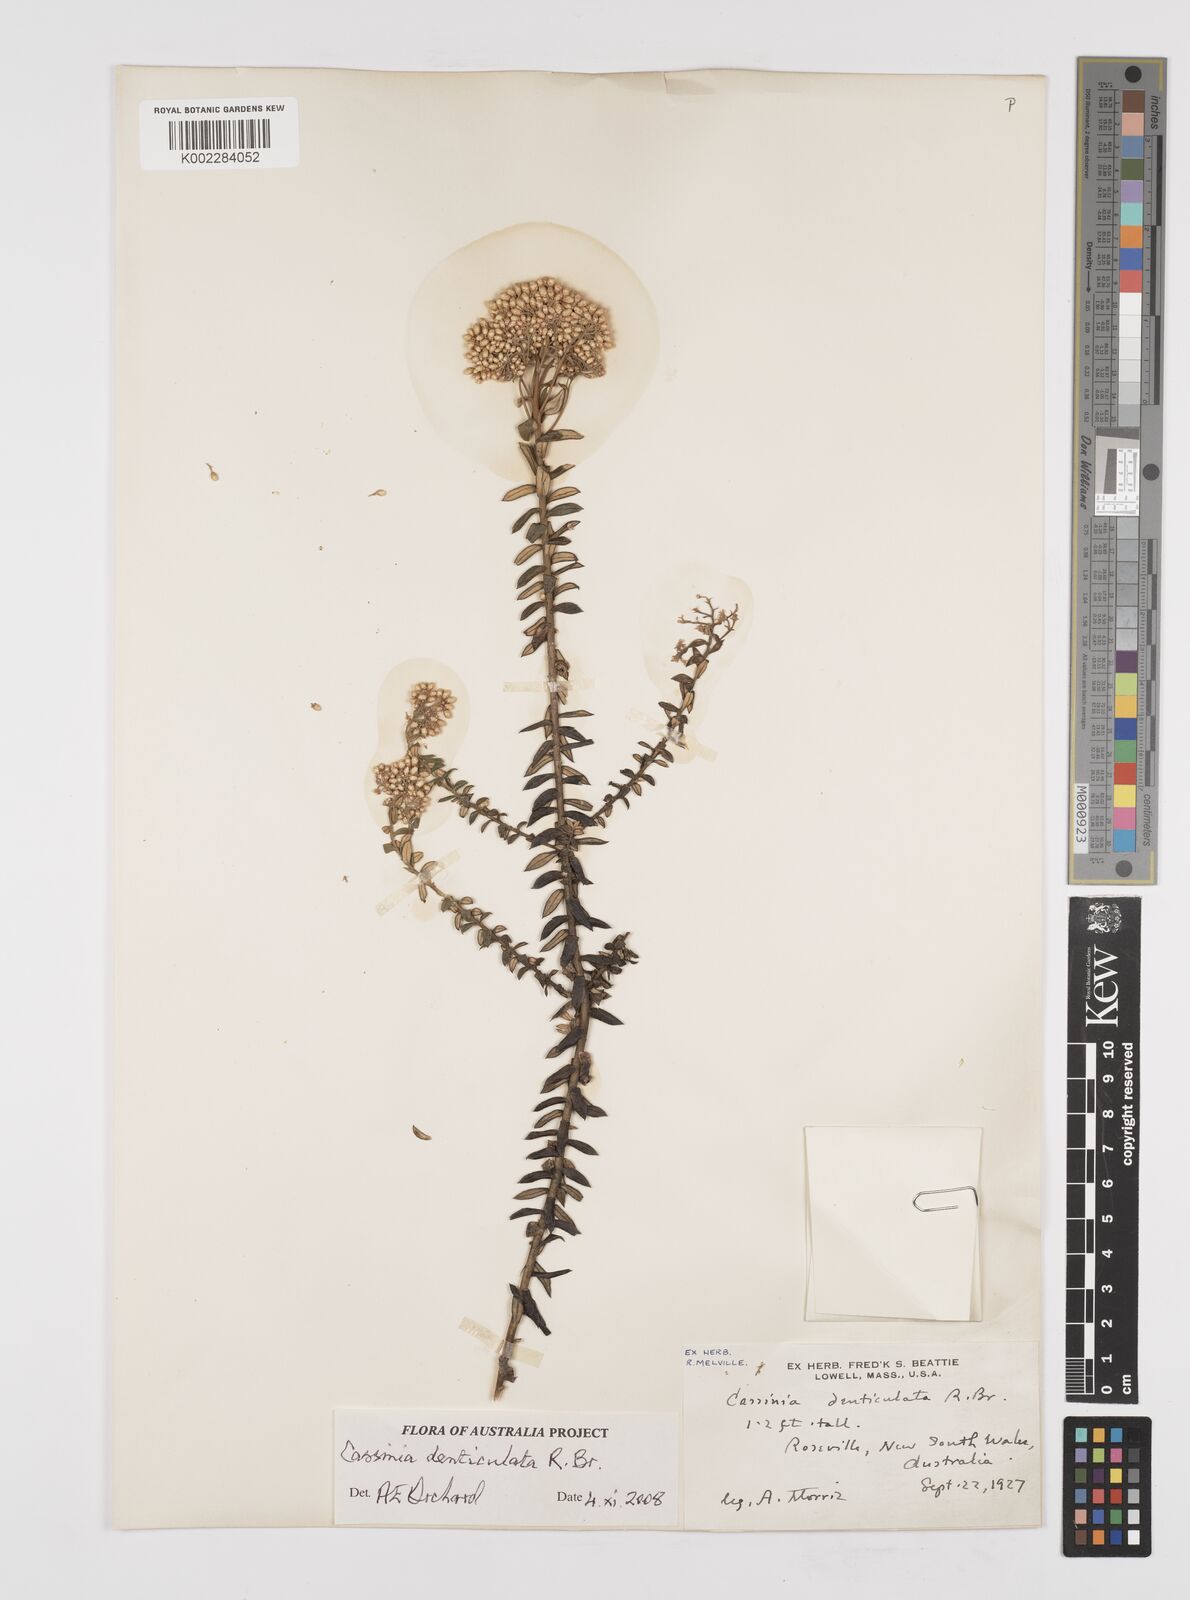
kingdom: Plantae
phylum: Tracheophyta
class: Magnoliopsida
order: Asterales
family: Asteraceae
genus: Cassinia
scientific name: Cassinia denticulata
